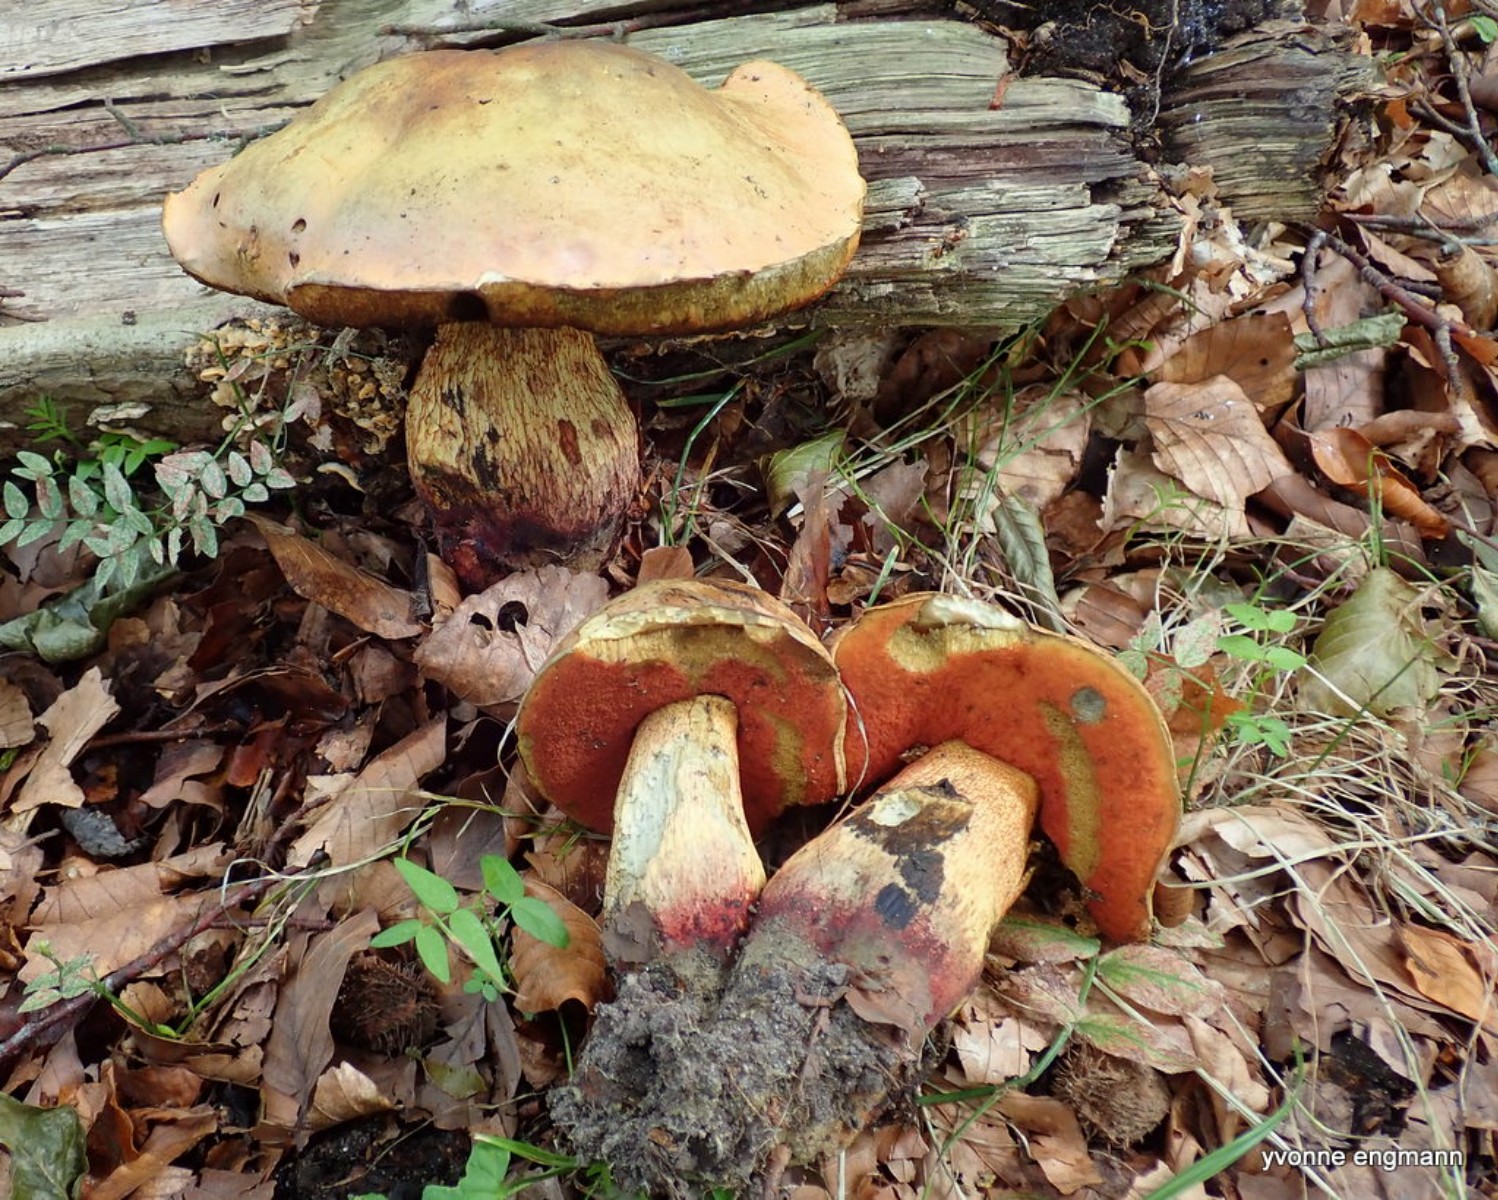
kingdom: Fungi
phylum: Basidiomycota
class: Agaricomycetes
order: Boletales
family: Boletaceae
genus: Suillellus
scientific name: Suillellus luridus
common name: netstokket indigorørhat
